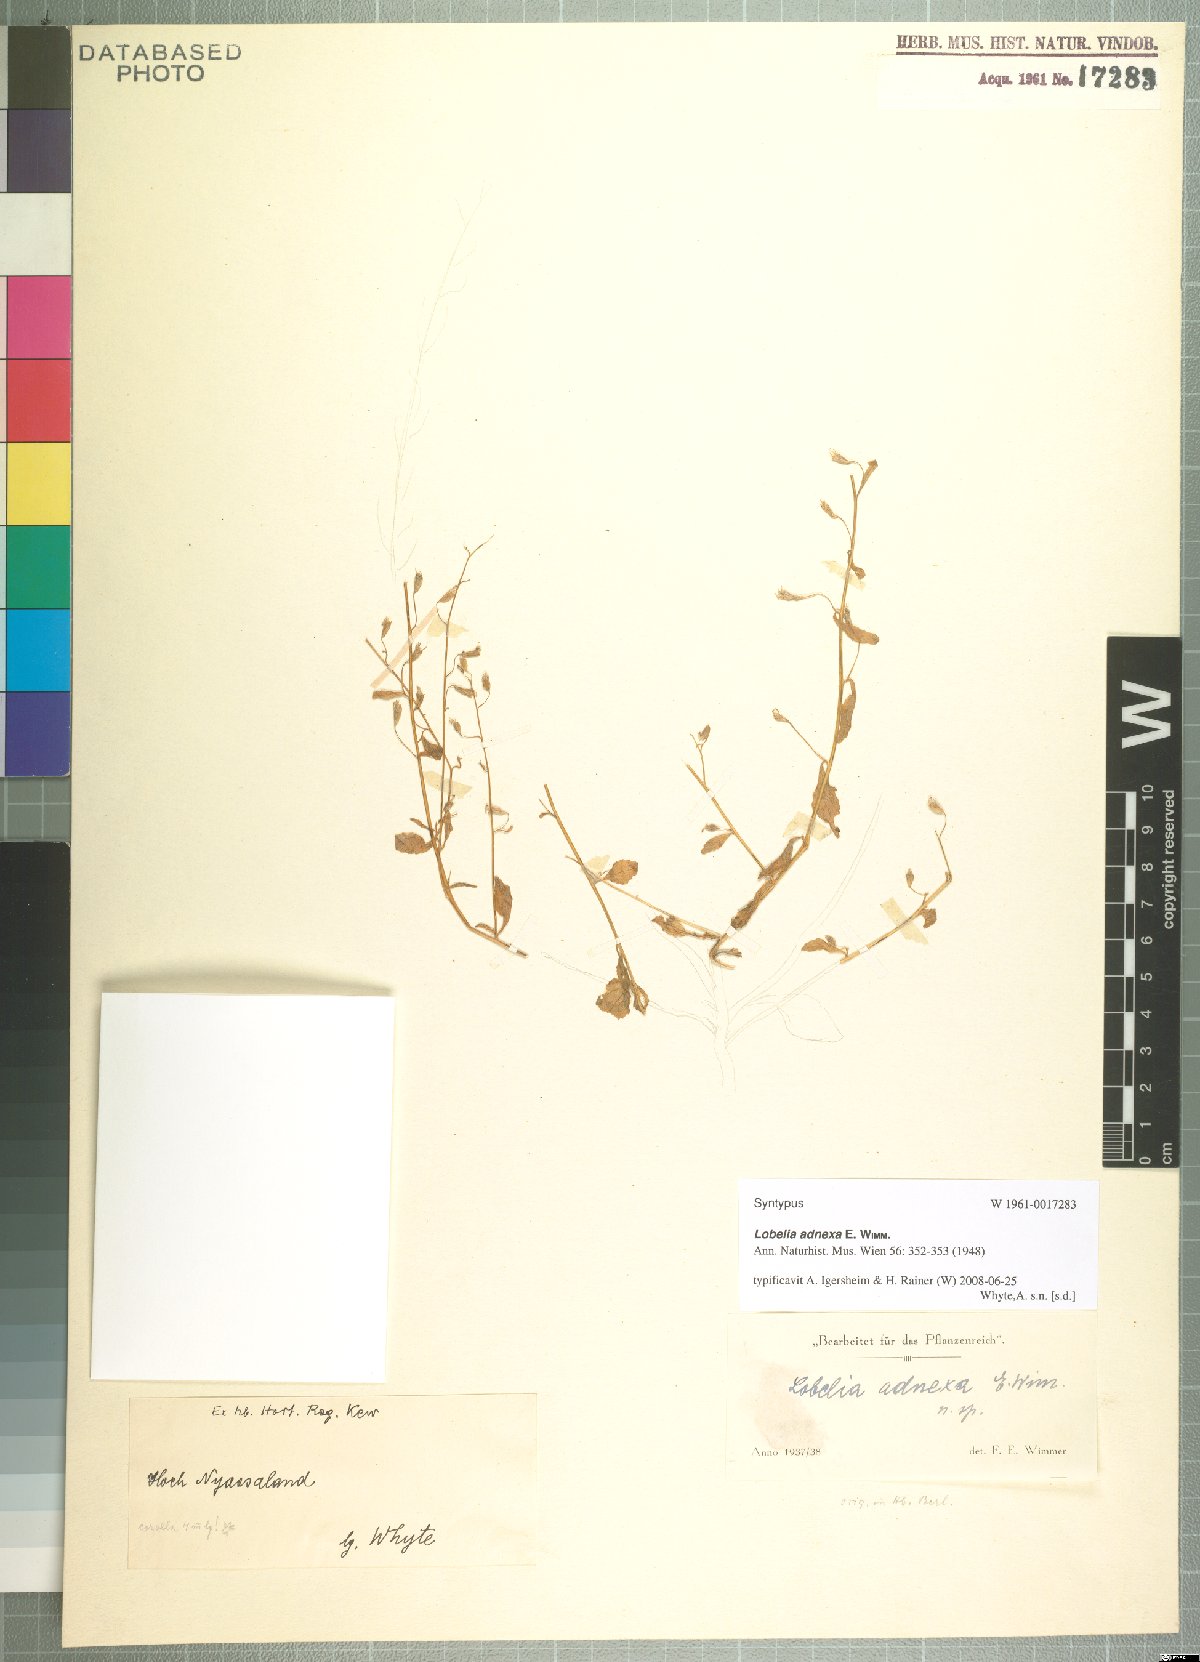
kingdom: Plantae
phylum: Tracheophyta
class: Magnoliopsida
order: Asterales
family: Campanulaceae
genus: Lobelia
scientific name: Lobelia adnexa
